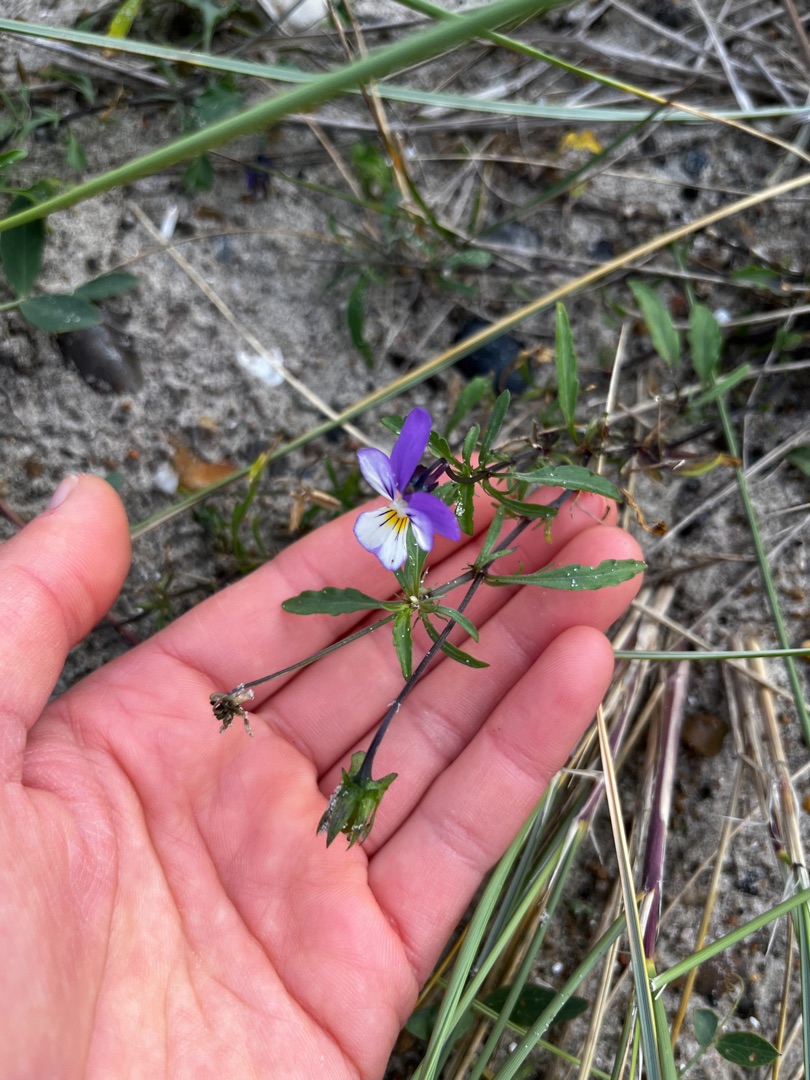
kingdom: Plantae
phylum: Tracheophyta
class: Magnoliopsida
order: Malpighiales
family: Violaceae
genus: Viola
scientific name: Viola tricolor
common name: Stedmoderblomst
